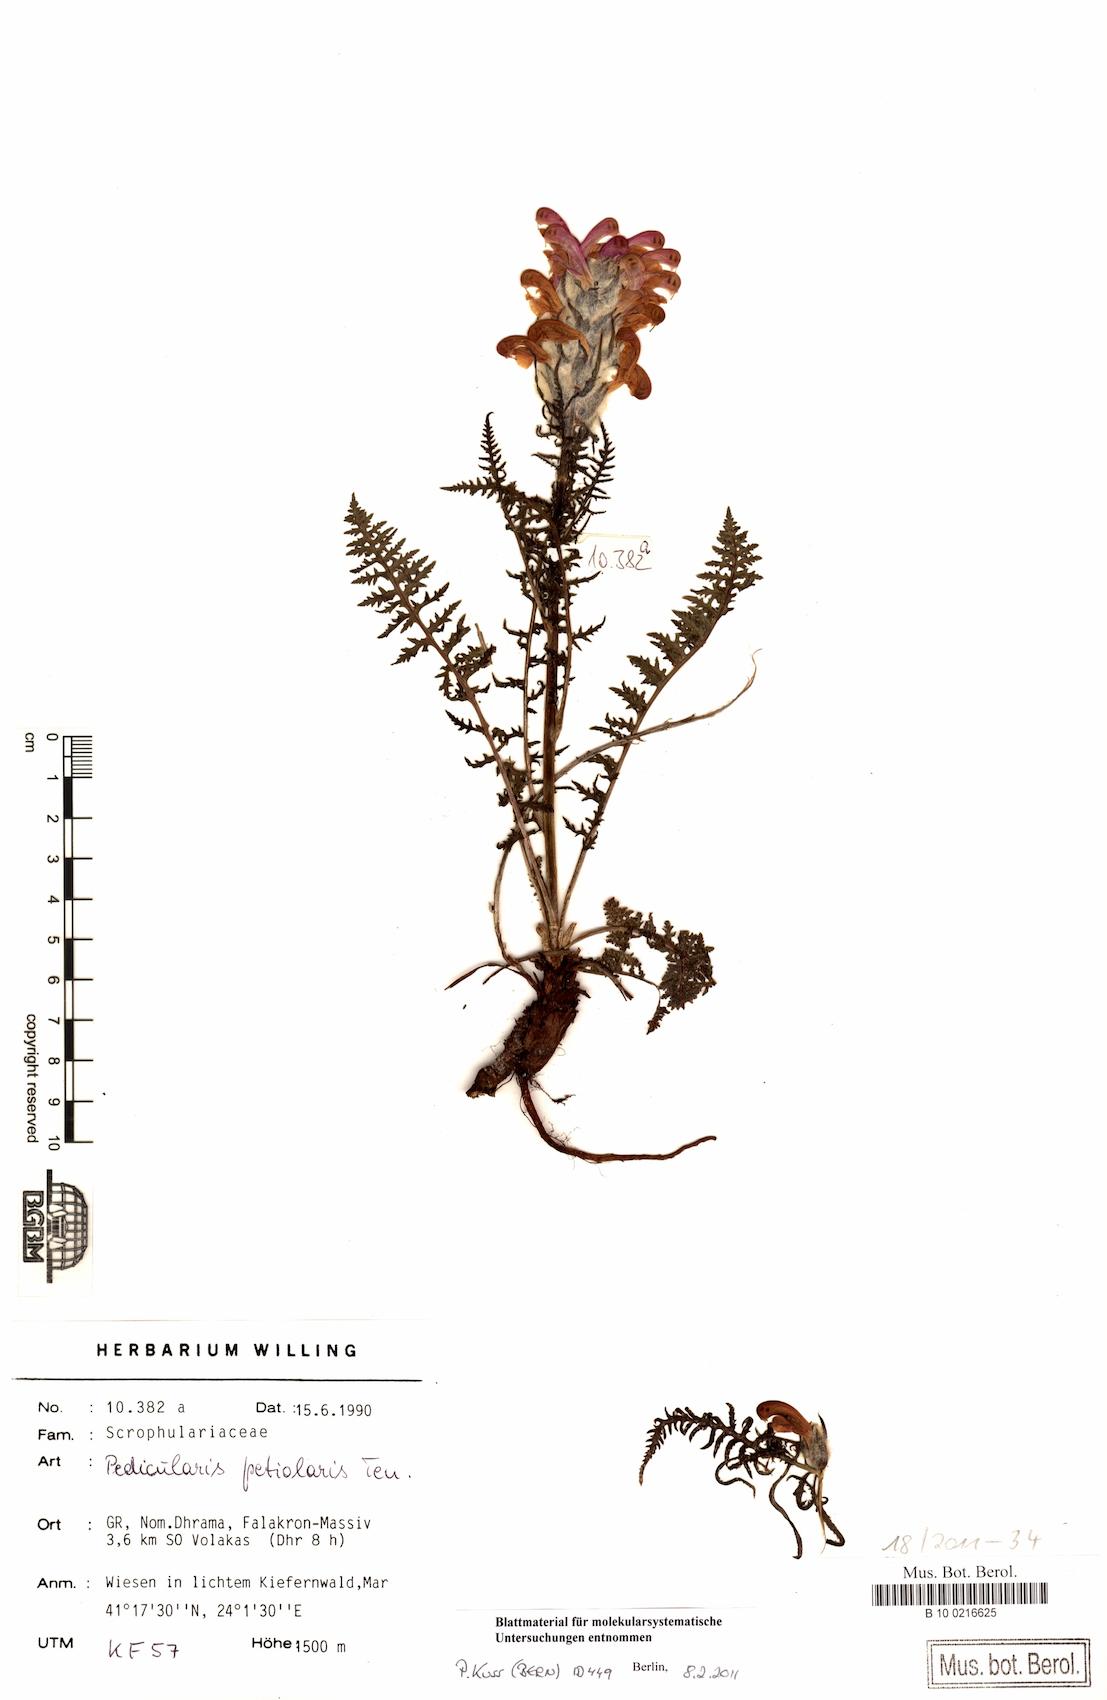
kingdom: Plantae
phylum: Tracheophyta
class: Magnoliopsida
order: Lamiales
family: Orobanchaceae
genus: Pedicularis
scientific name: Pedicularis friderici-augusti
